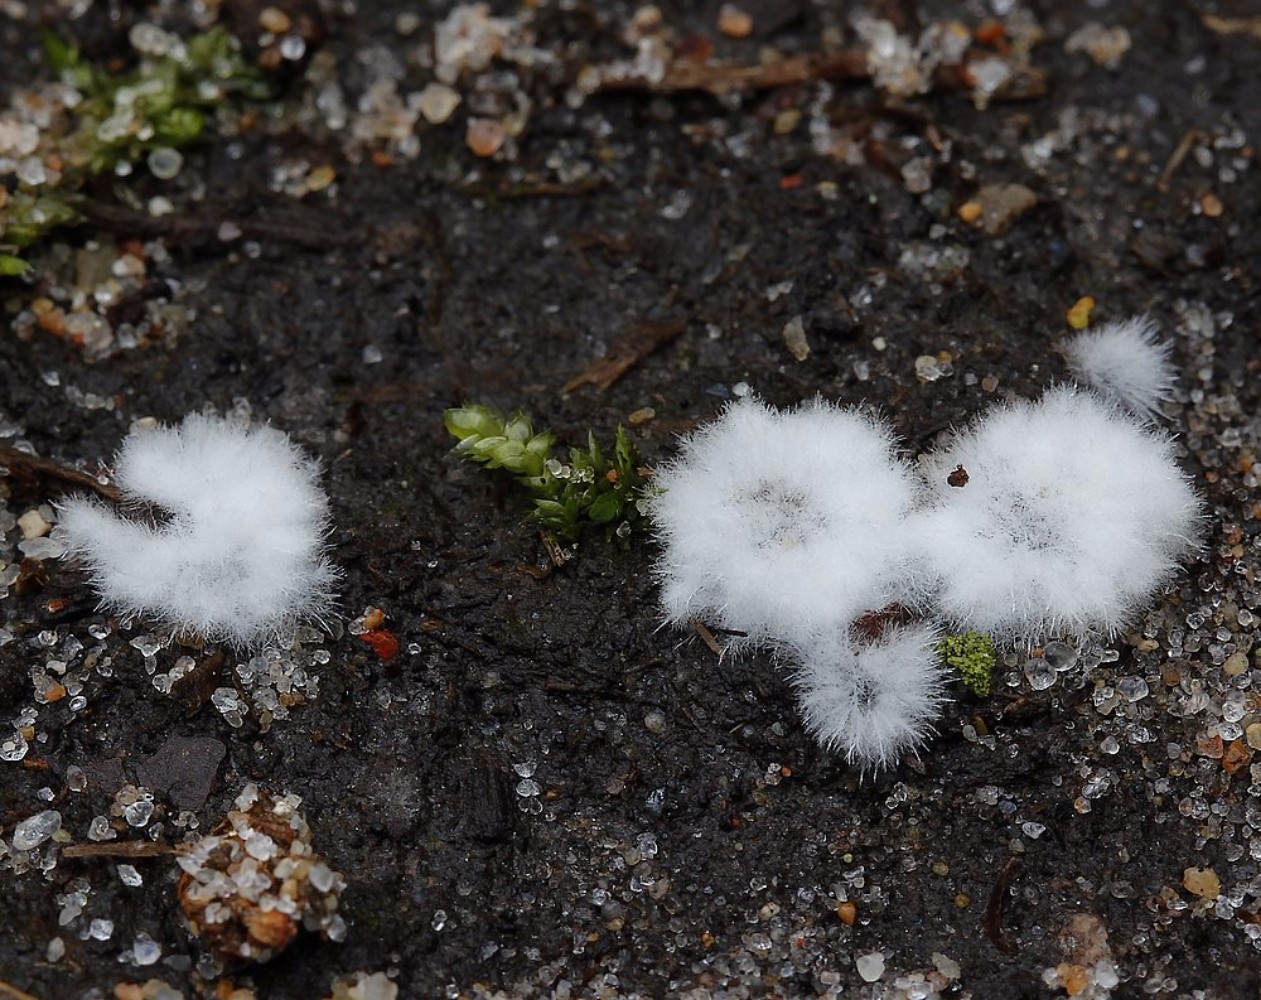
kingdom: Fungi
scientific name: Fungi
